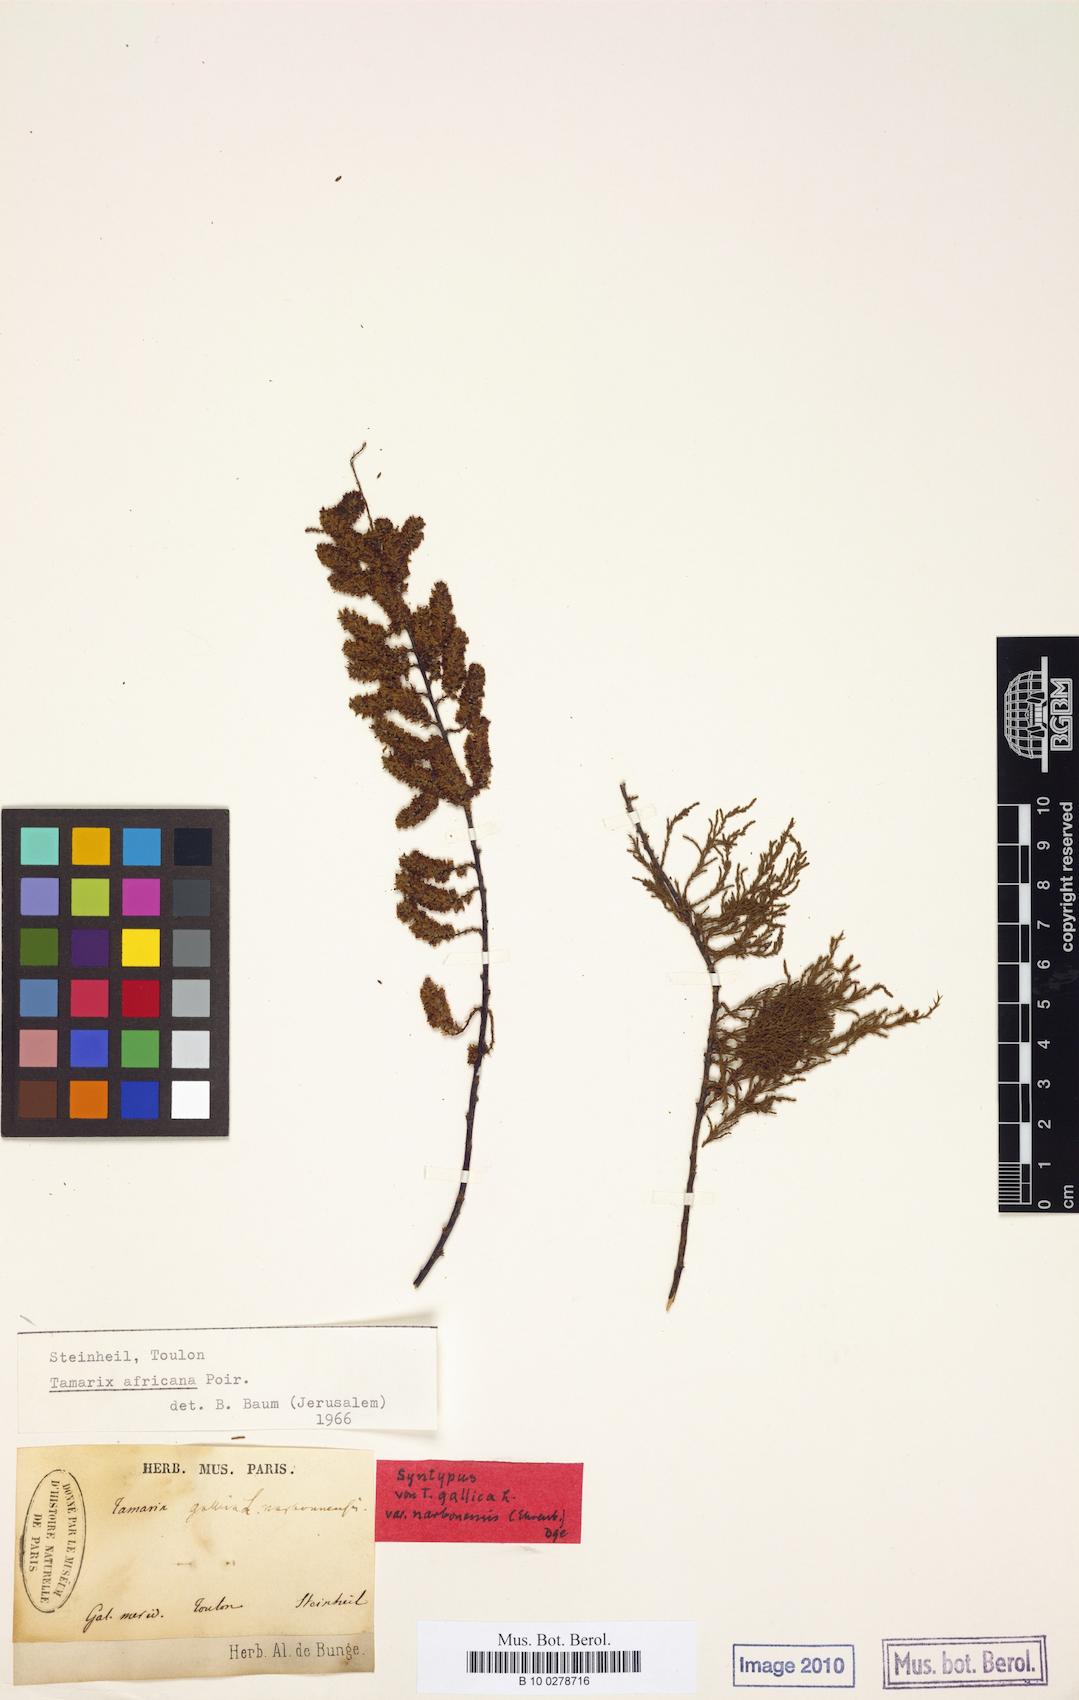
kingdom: Plantae
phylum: Tracheophyta
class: Magnoliopsida
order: Caryophyllales
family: Tamaricaceae
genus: Tamarix
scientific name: Tamarix africana
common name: African tamarisk
